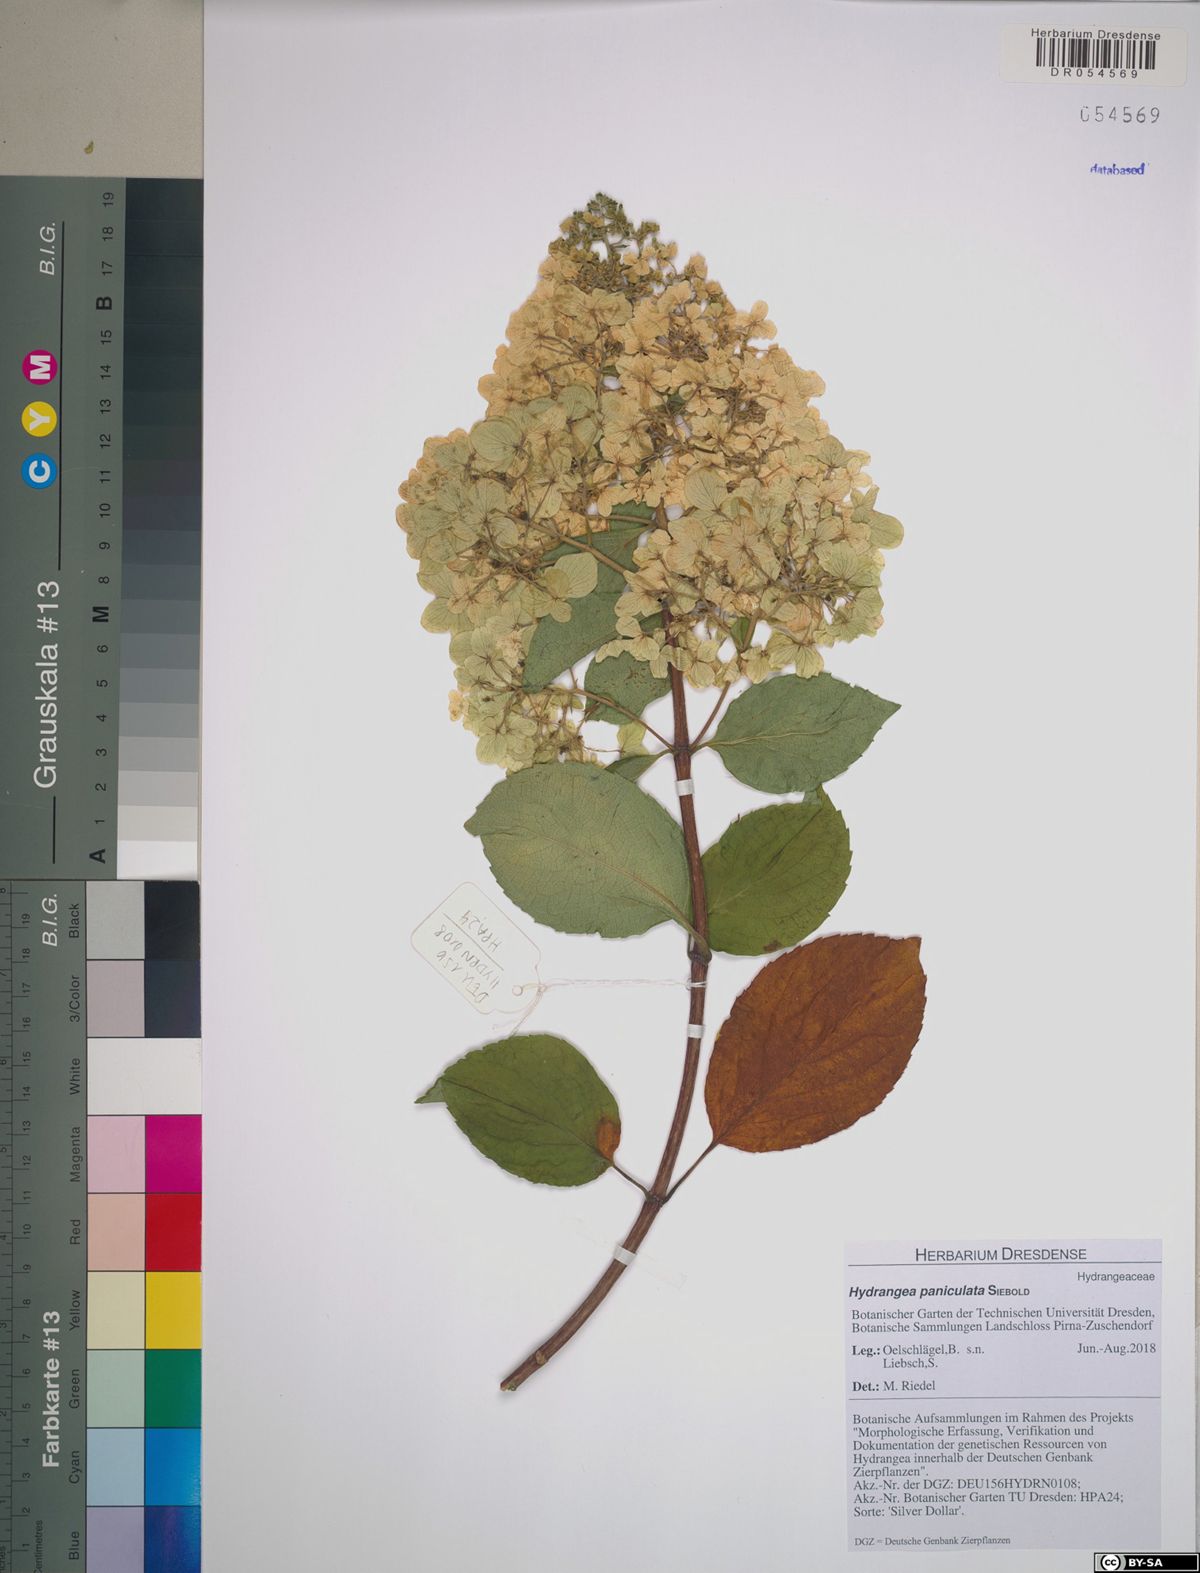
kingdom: Plantae
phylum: Tracheophyta
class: Magnoliopsida
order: Cornales
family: Hydrangeaceae
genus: Hydrangea
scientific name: Hydrangea paniculata
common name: Panicled hydrangea
